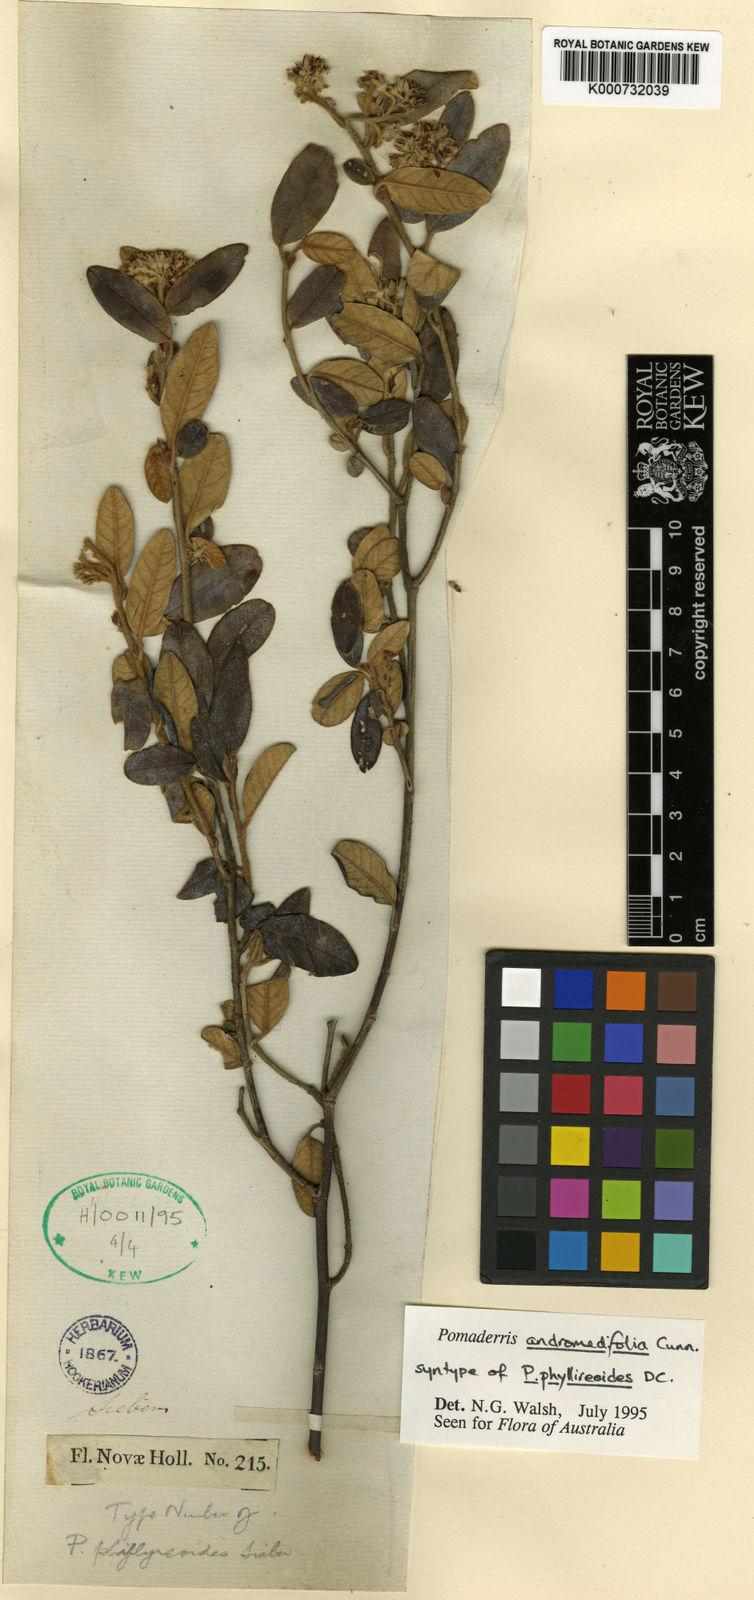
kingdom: Plantae
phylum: Tracheophyta
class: Magnoliopsida
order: Rosales
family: Rhamnaceae
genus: Pomaderris
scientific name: Pomaderris
